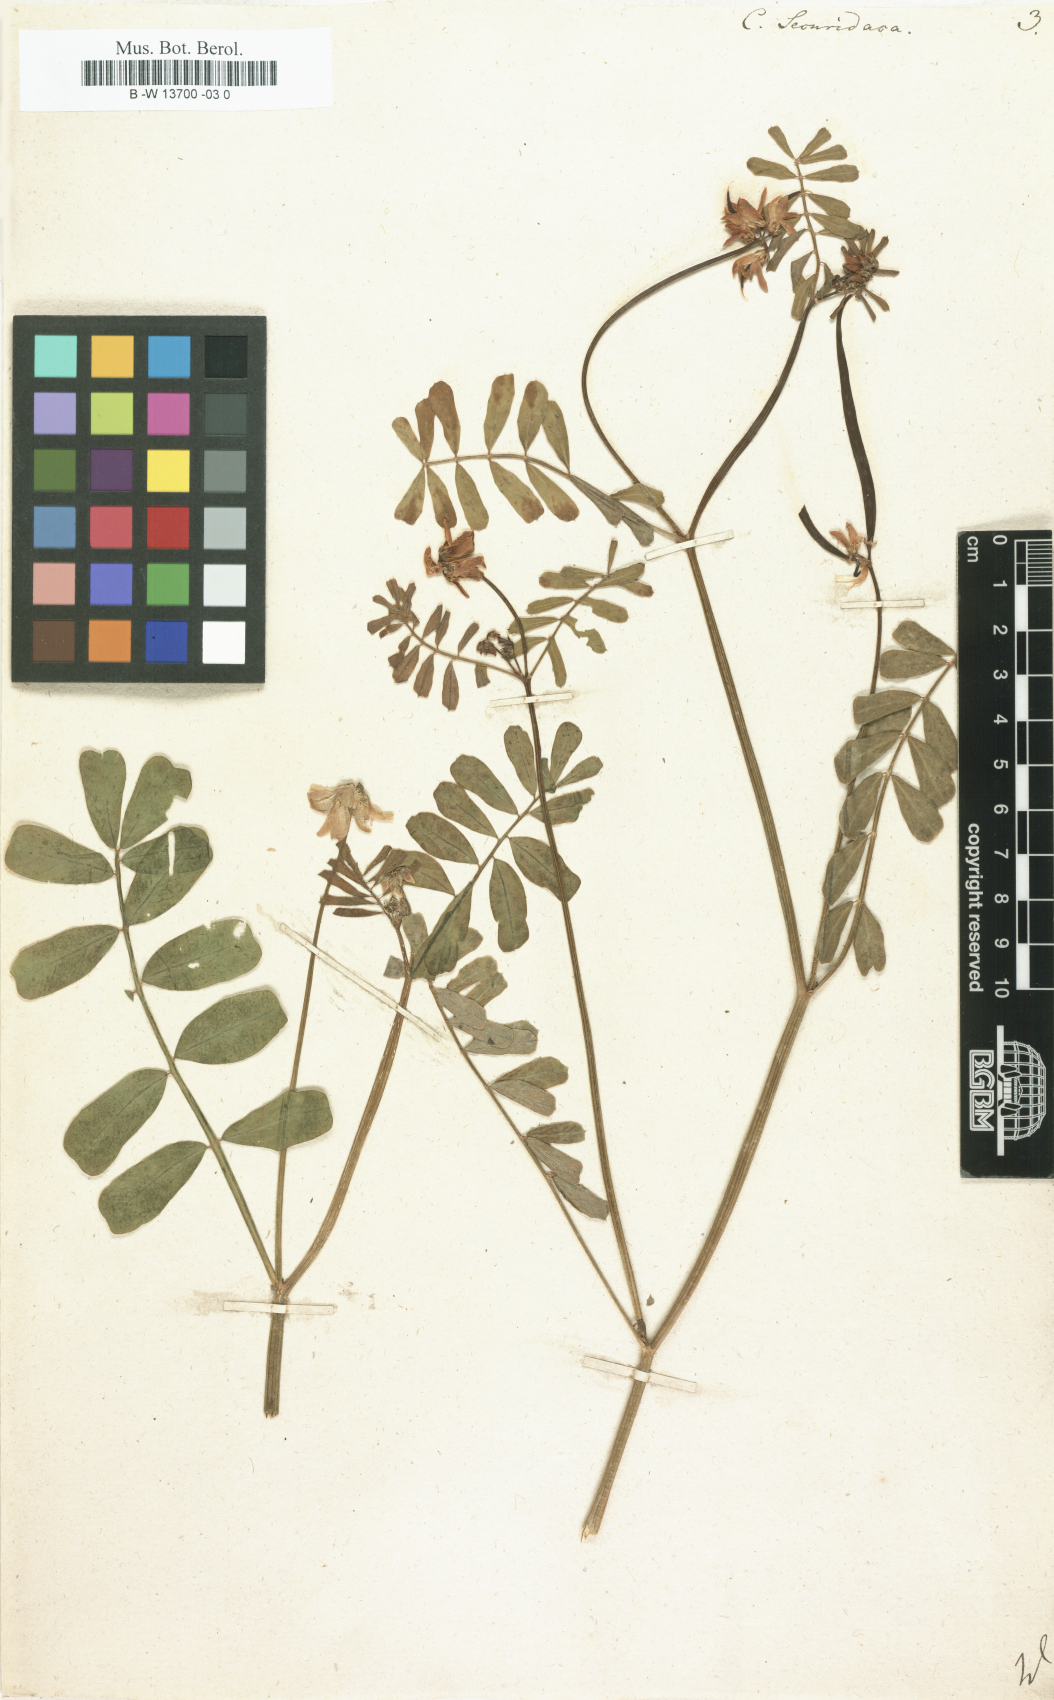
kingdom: Plantae
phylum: Tracheophyta
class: Magnoliopsida
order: Fabales
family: Fabaceae
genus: Coronilla
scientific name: Coronilla securidaca
